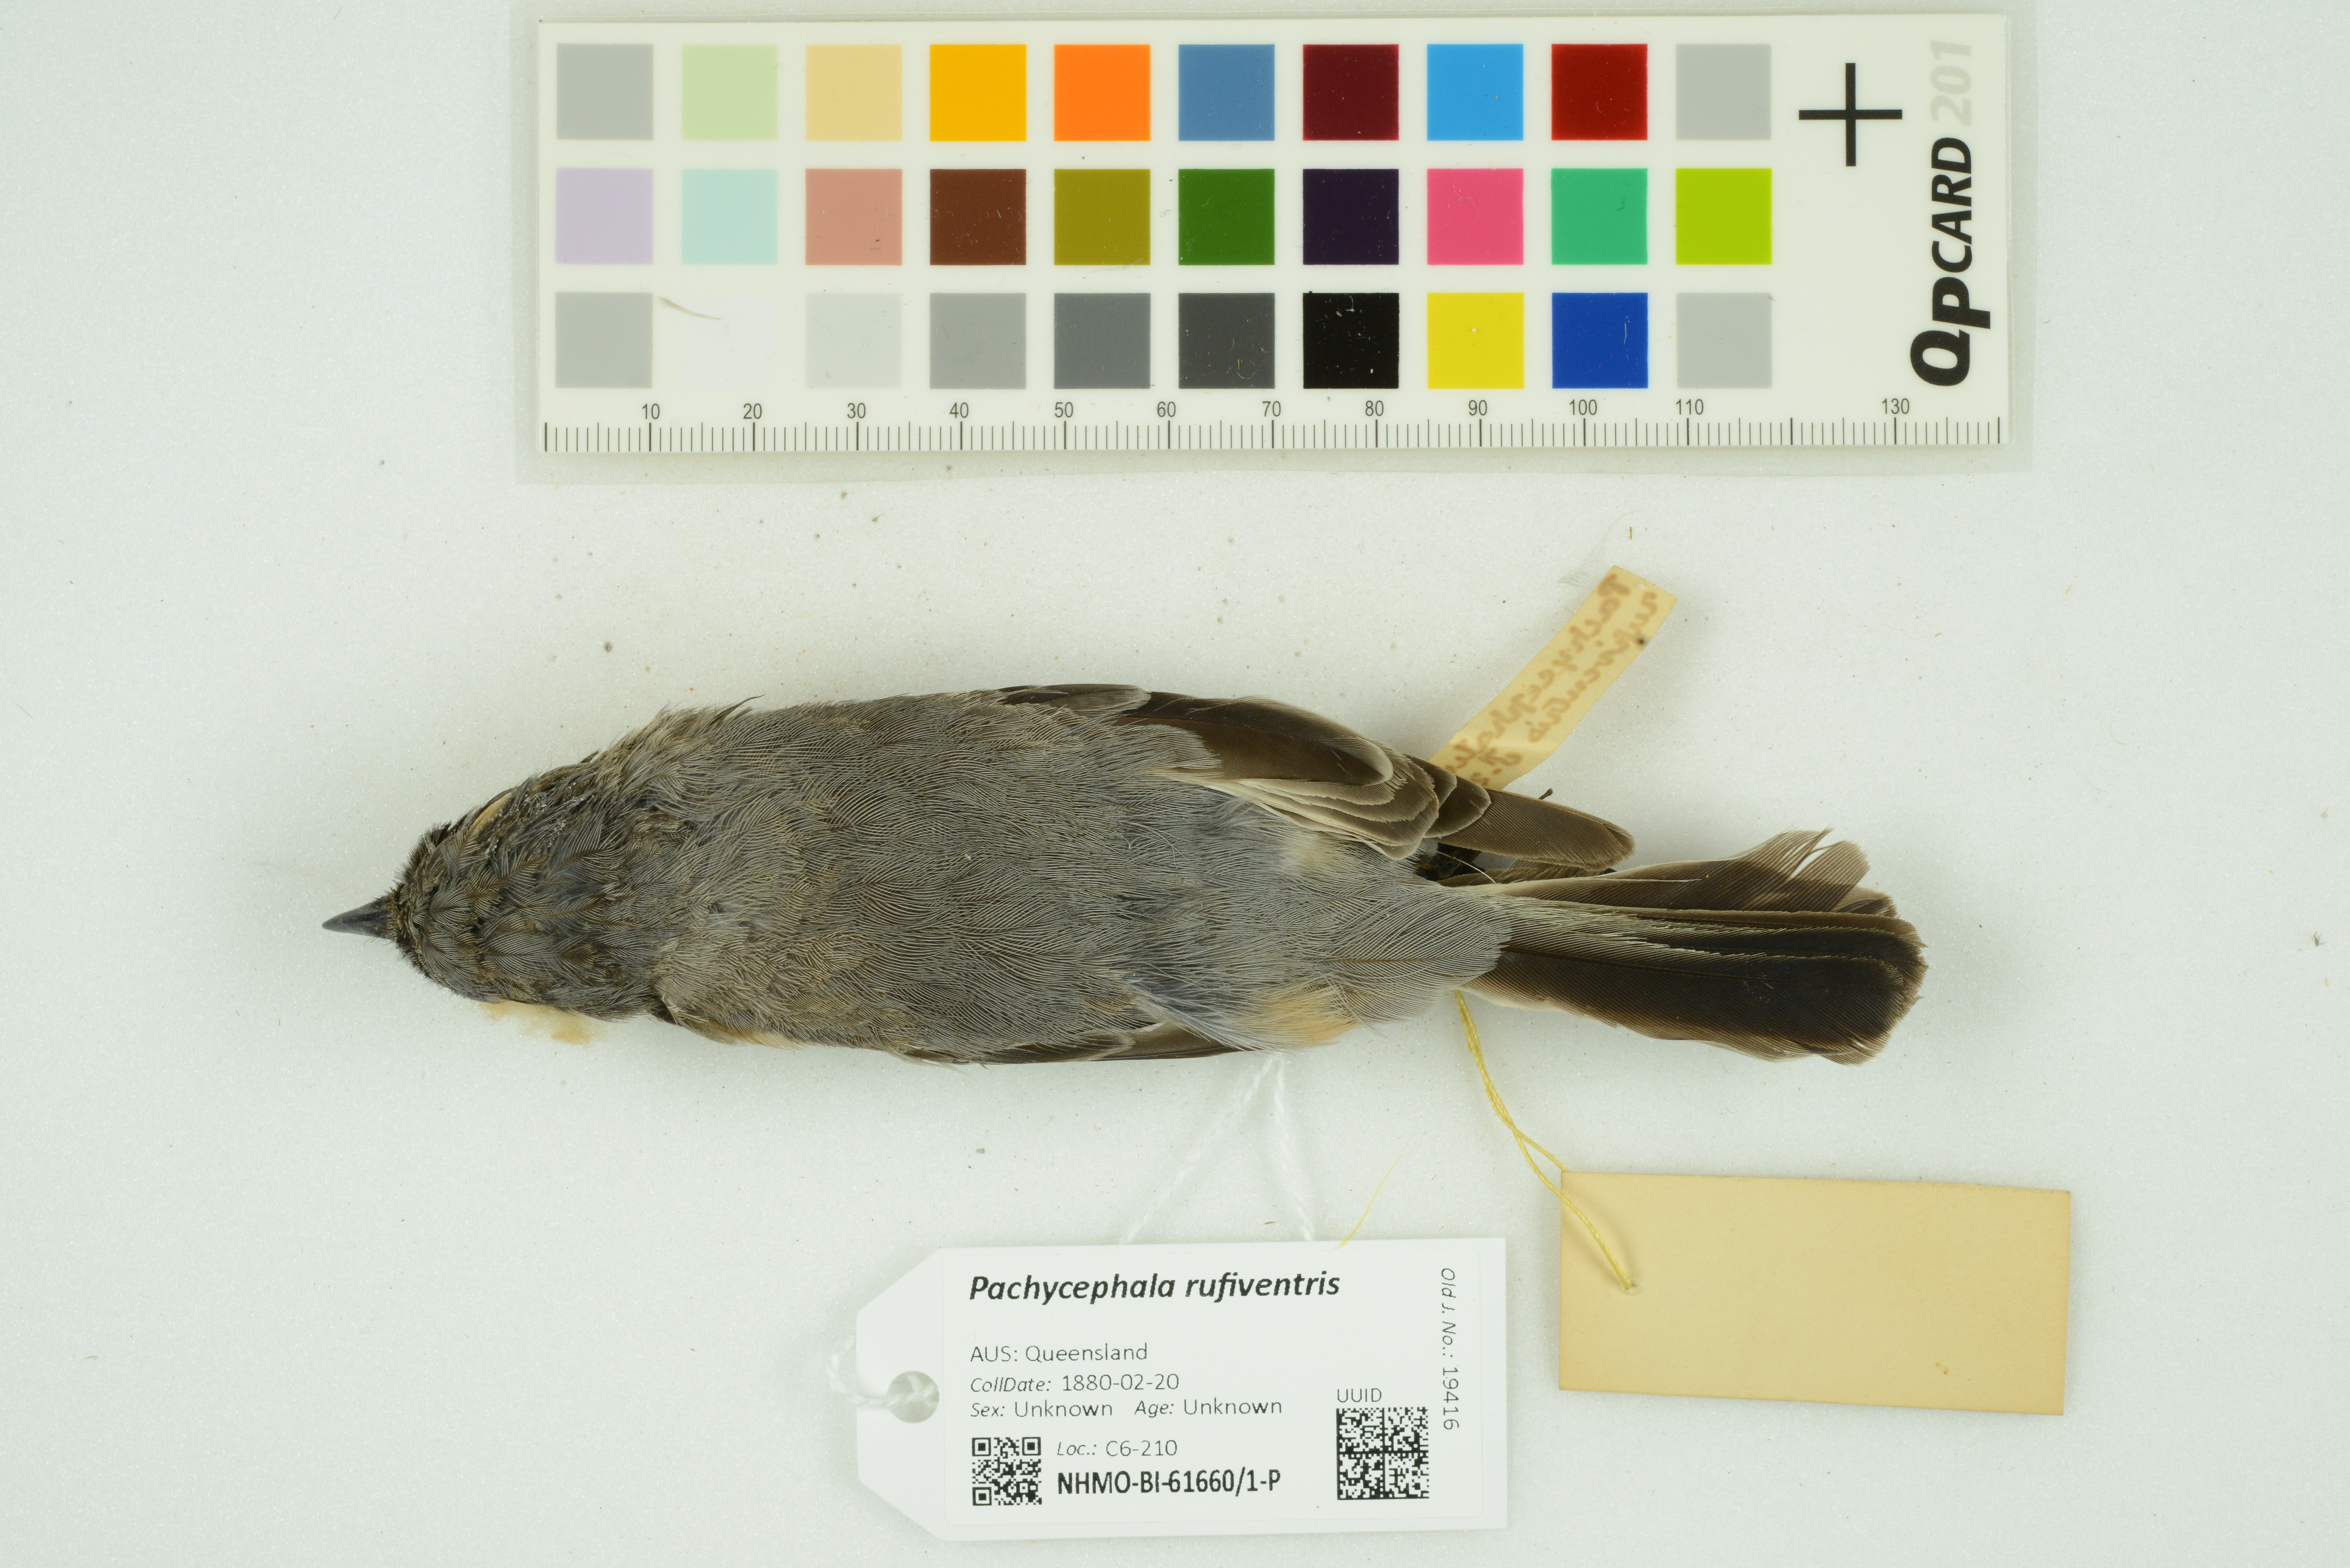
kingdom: Animalia
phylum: Chordata
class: Aves
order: Passeriformes
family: Pachycephalidae
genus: Pachycephala
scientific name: Pachycephala rufiventris
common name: Rufous whistler
